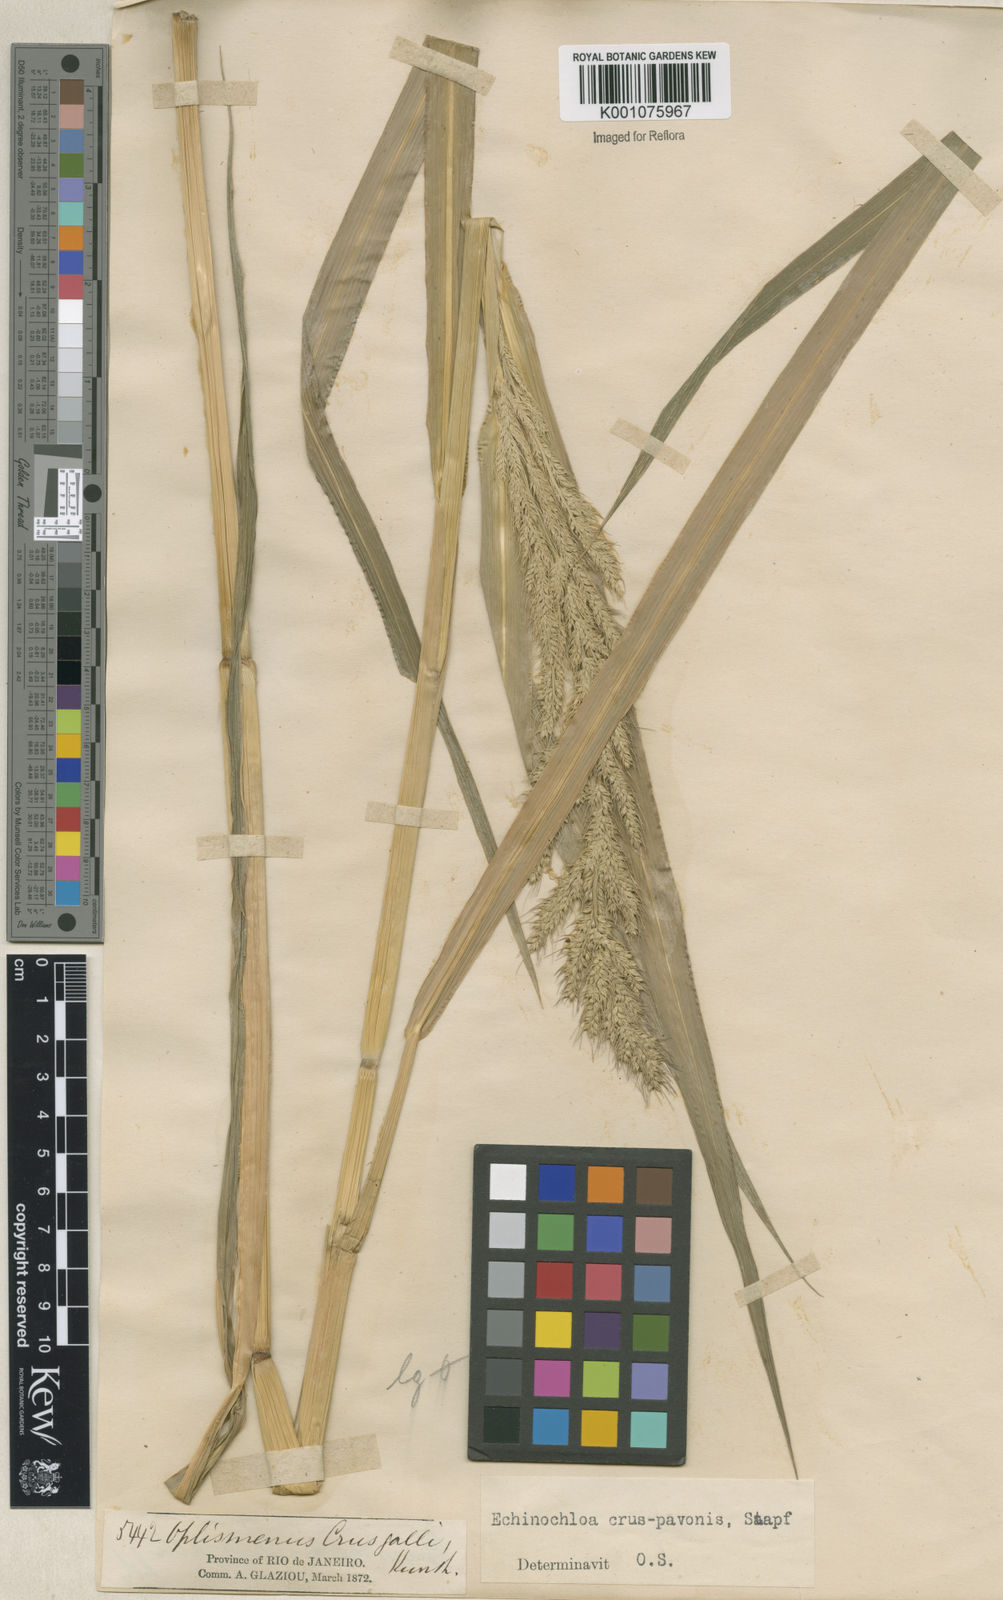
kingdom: Plantae
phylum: Tracheophyta
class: Liliopsida
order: Poales
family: Poaceae
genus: Echinochloa
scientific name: Echinochloa crus-pavonis
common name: Gulf cockspur grass
